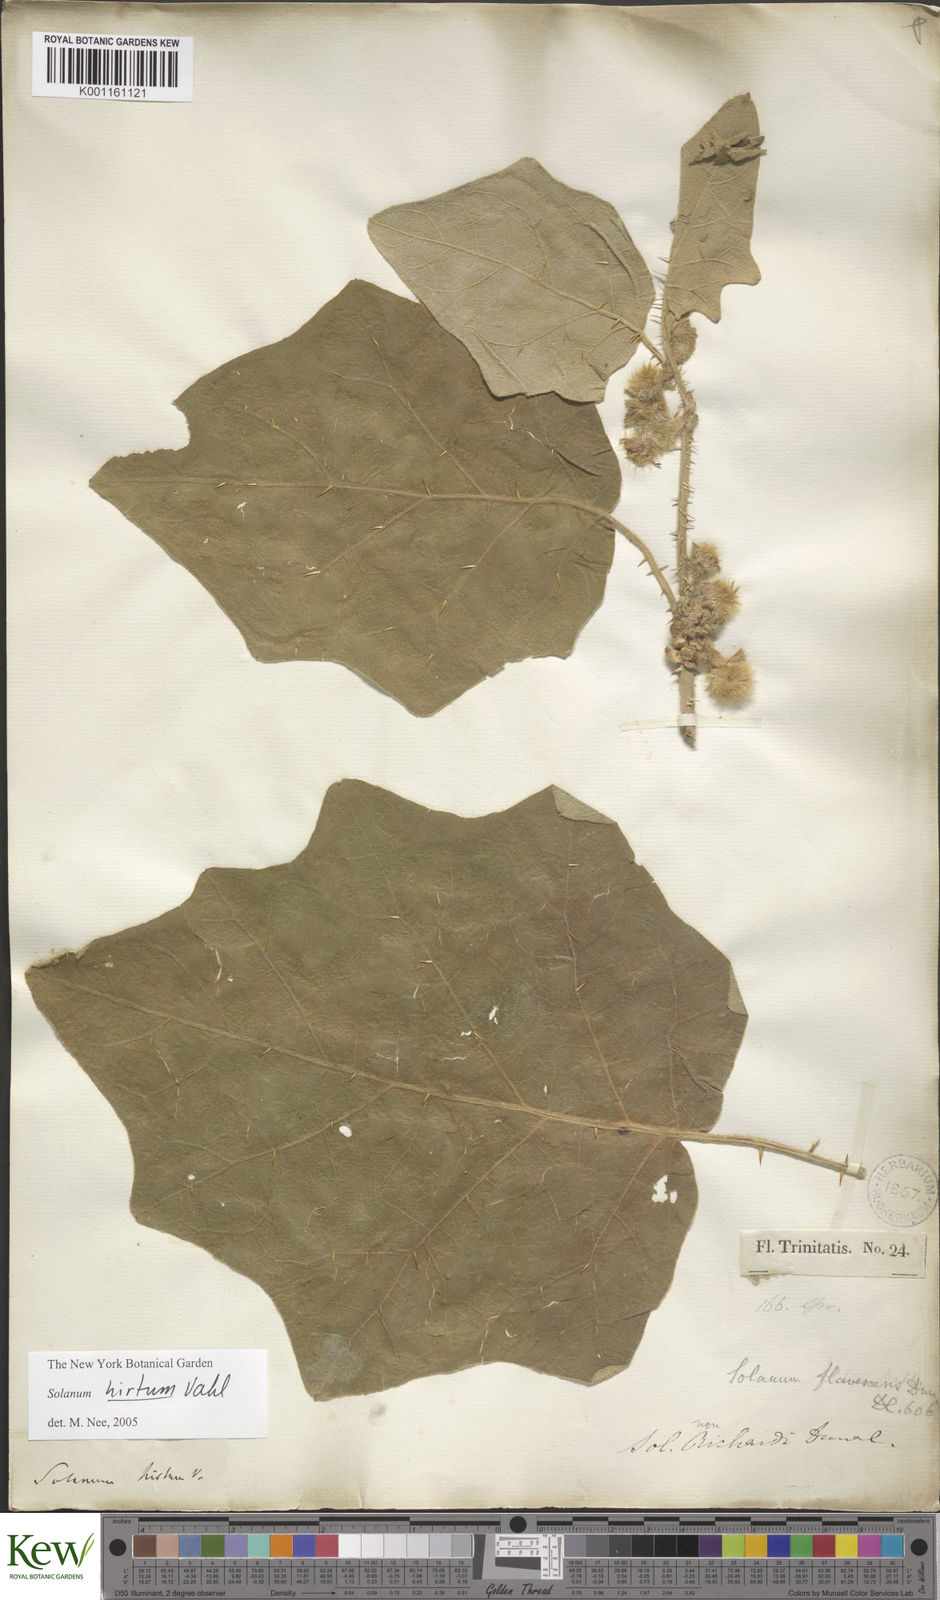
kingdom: Plantae
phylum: Tracheophyta
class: Magnoliopsida
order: Solanales
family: Solanaceae
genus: Solanum
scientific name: Solanum hirtum
